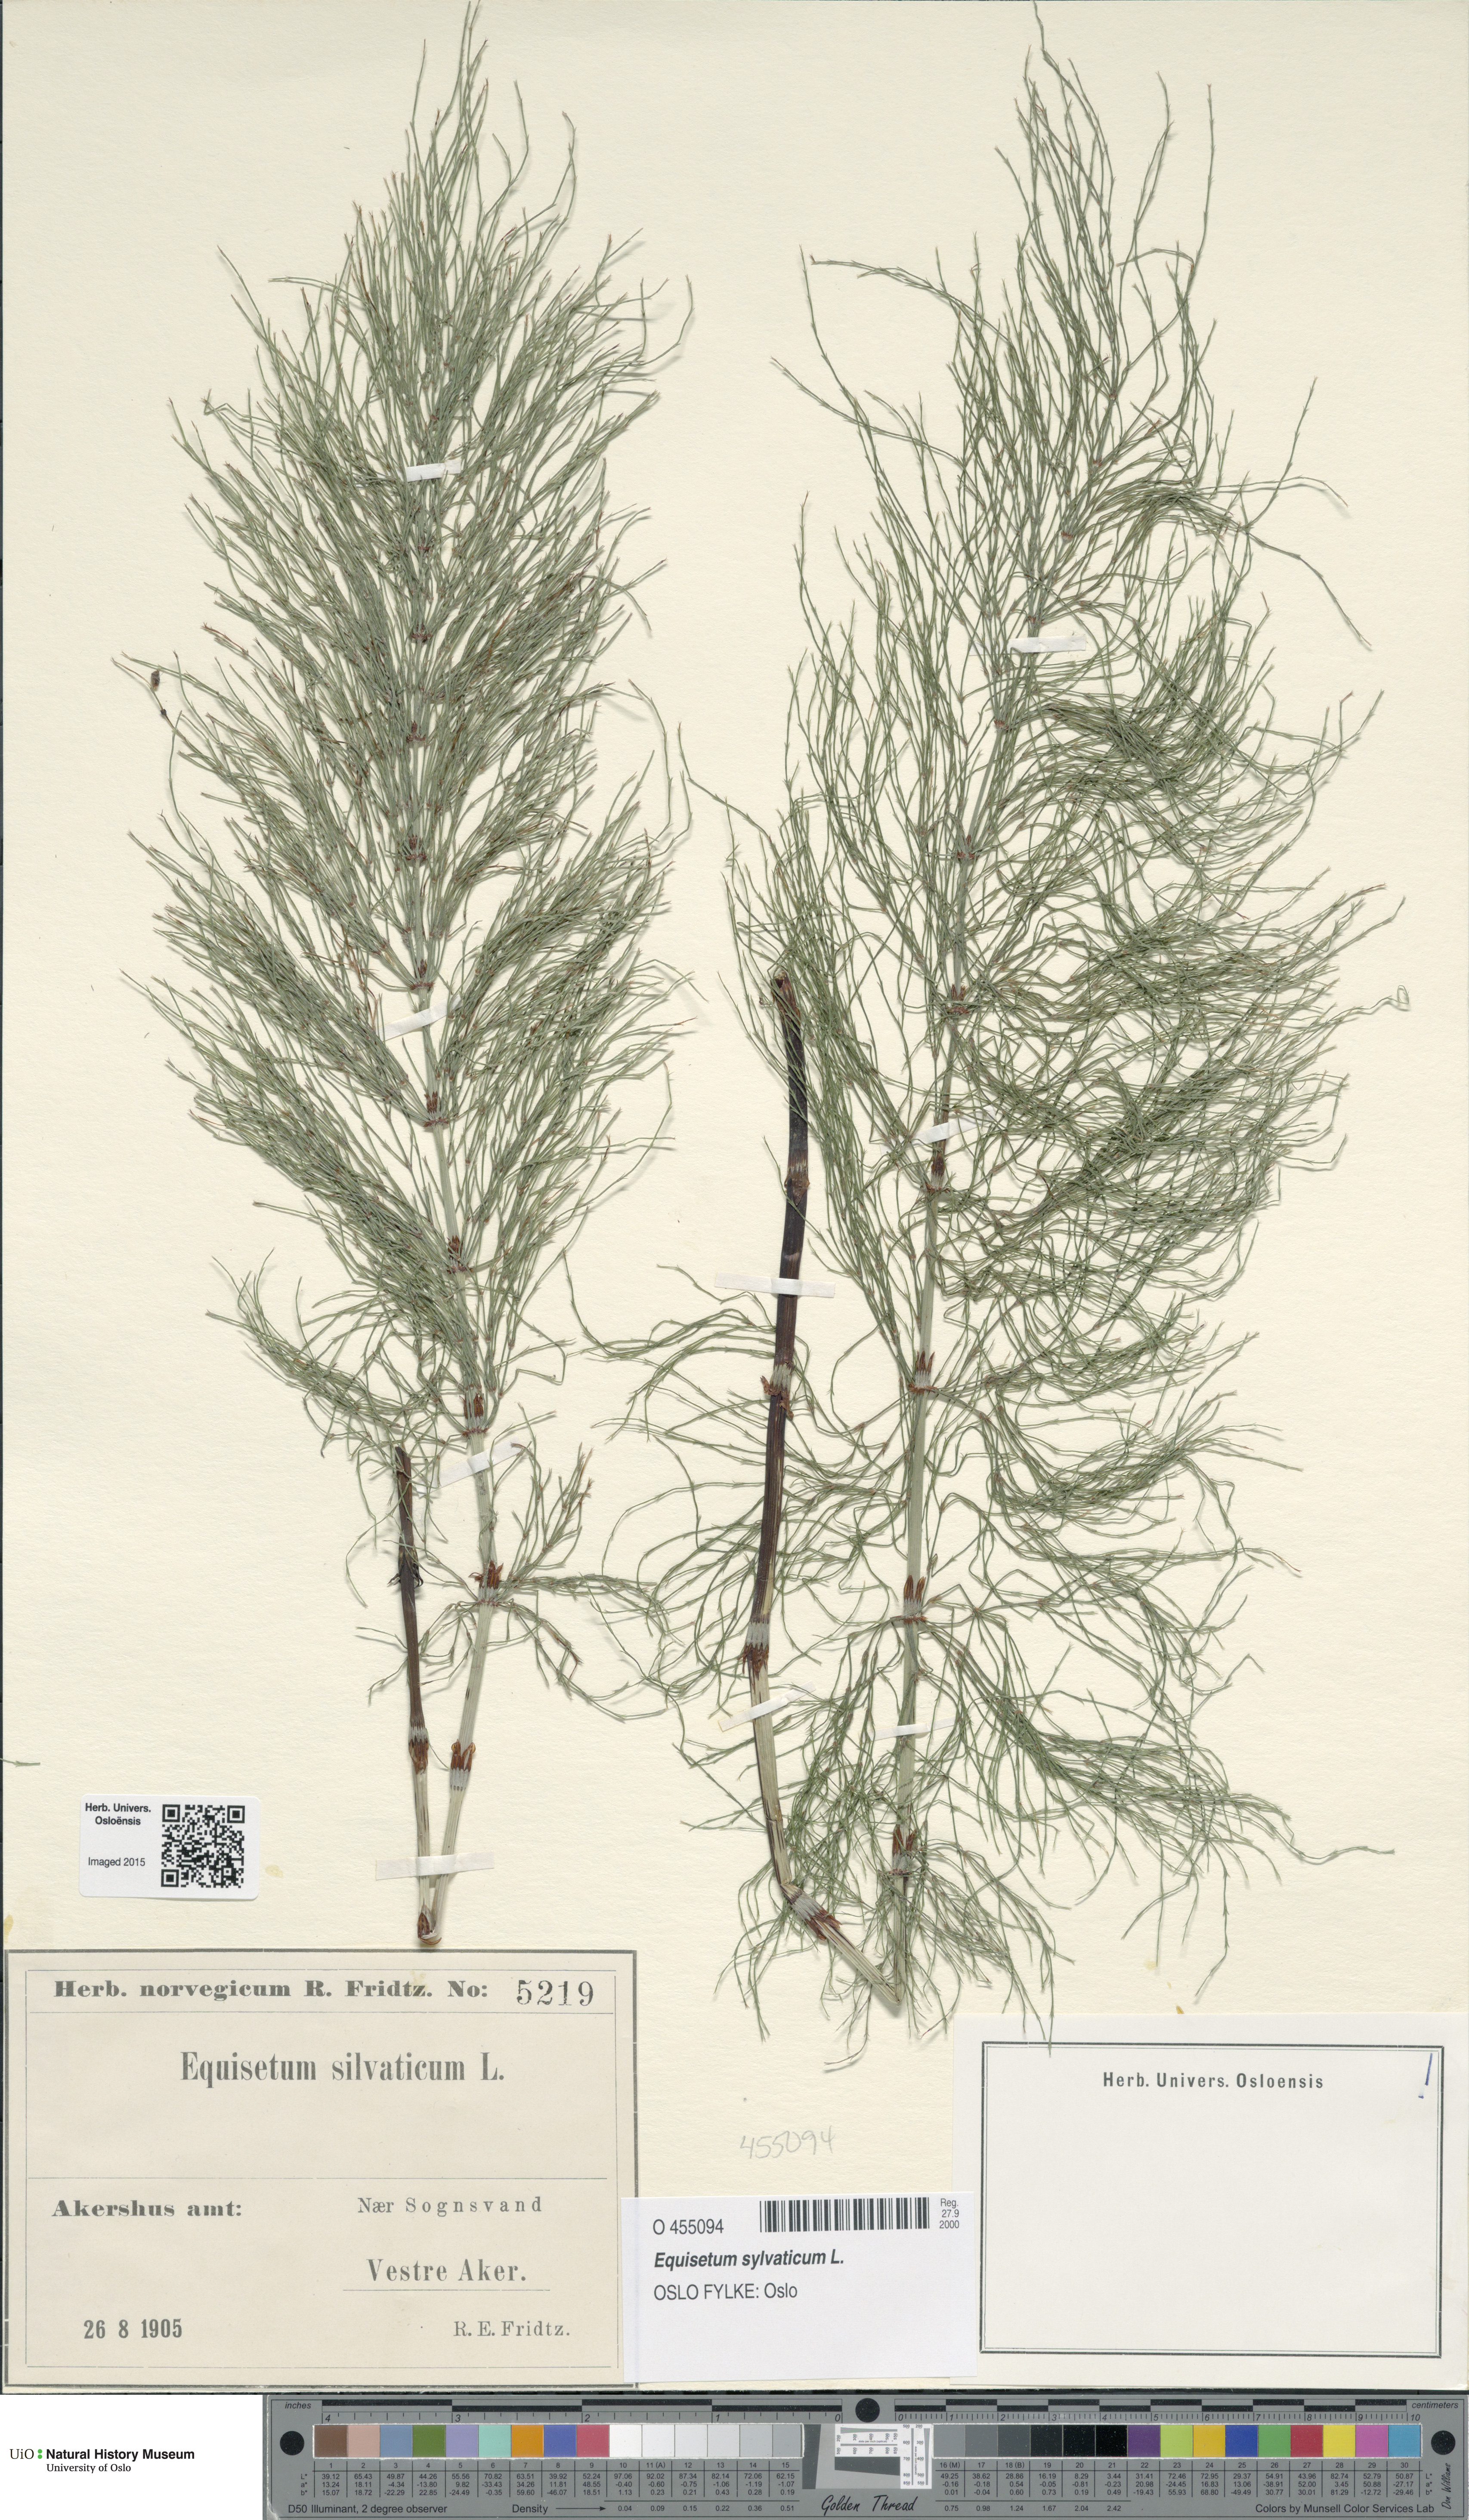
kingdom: Plantae
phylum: Tracheophyta
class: Polypodiopsida
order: Equisetales
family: Equisetaceae
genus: Equisetum
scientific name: Equisetum sylvaticum
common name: Wood horsetail
